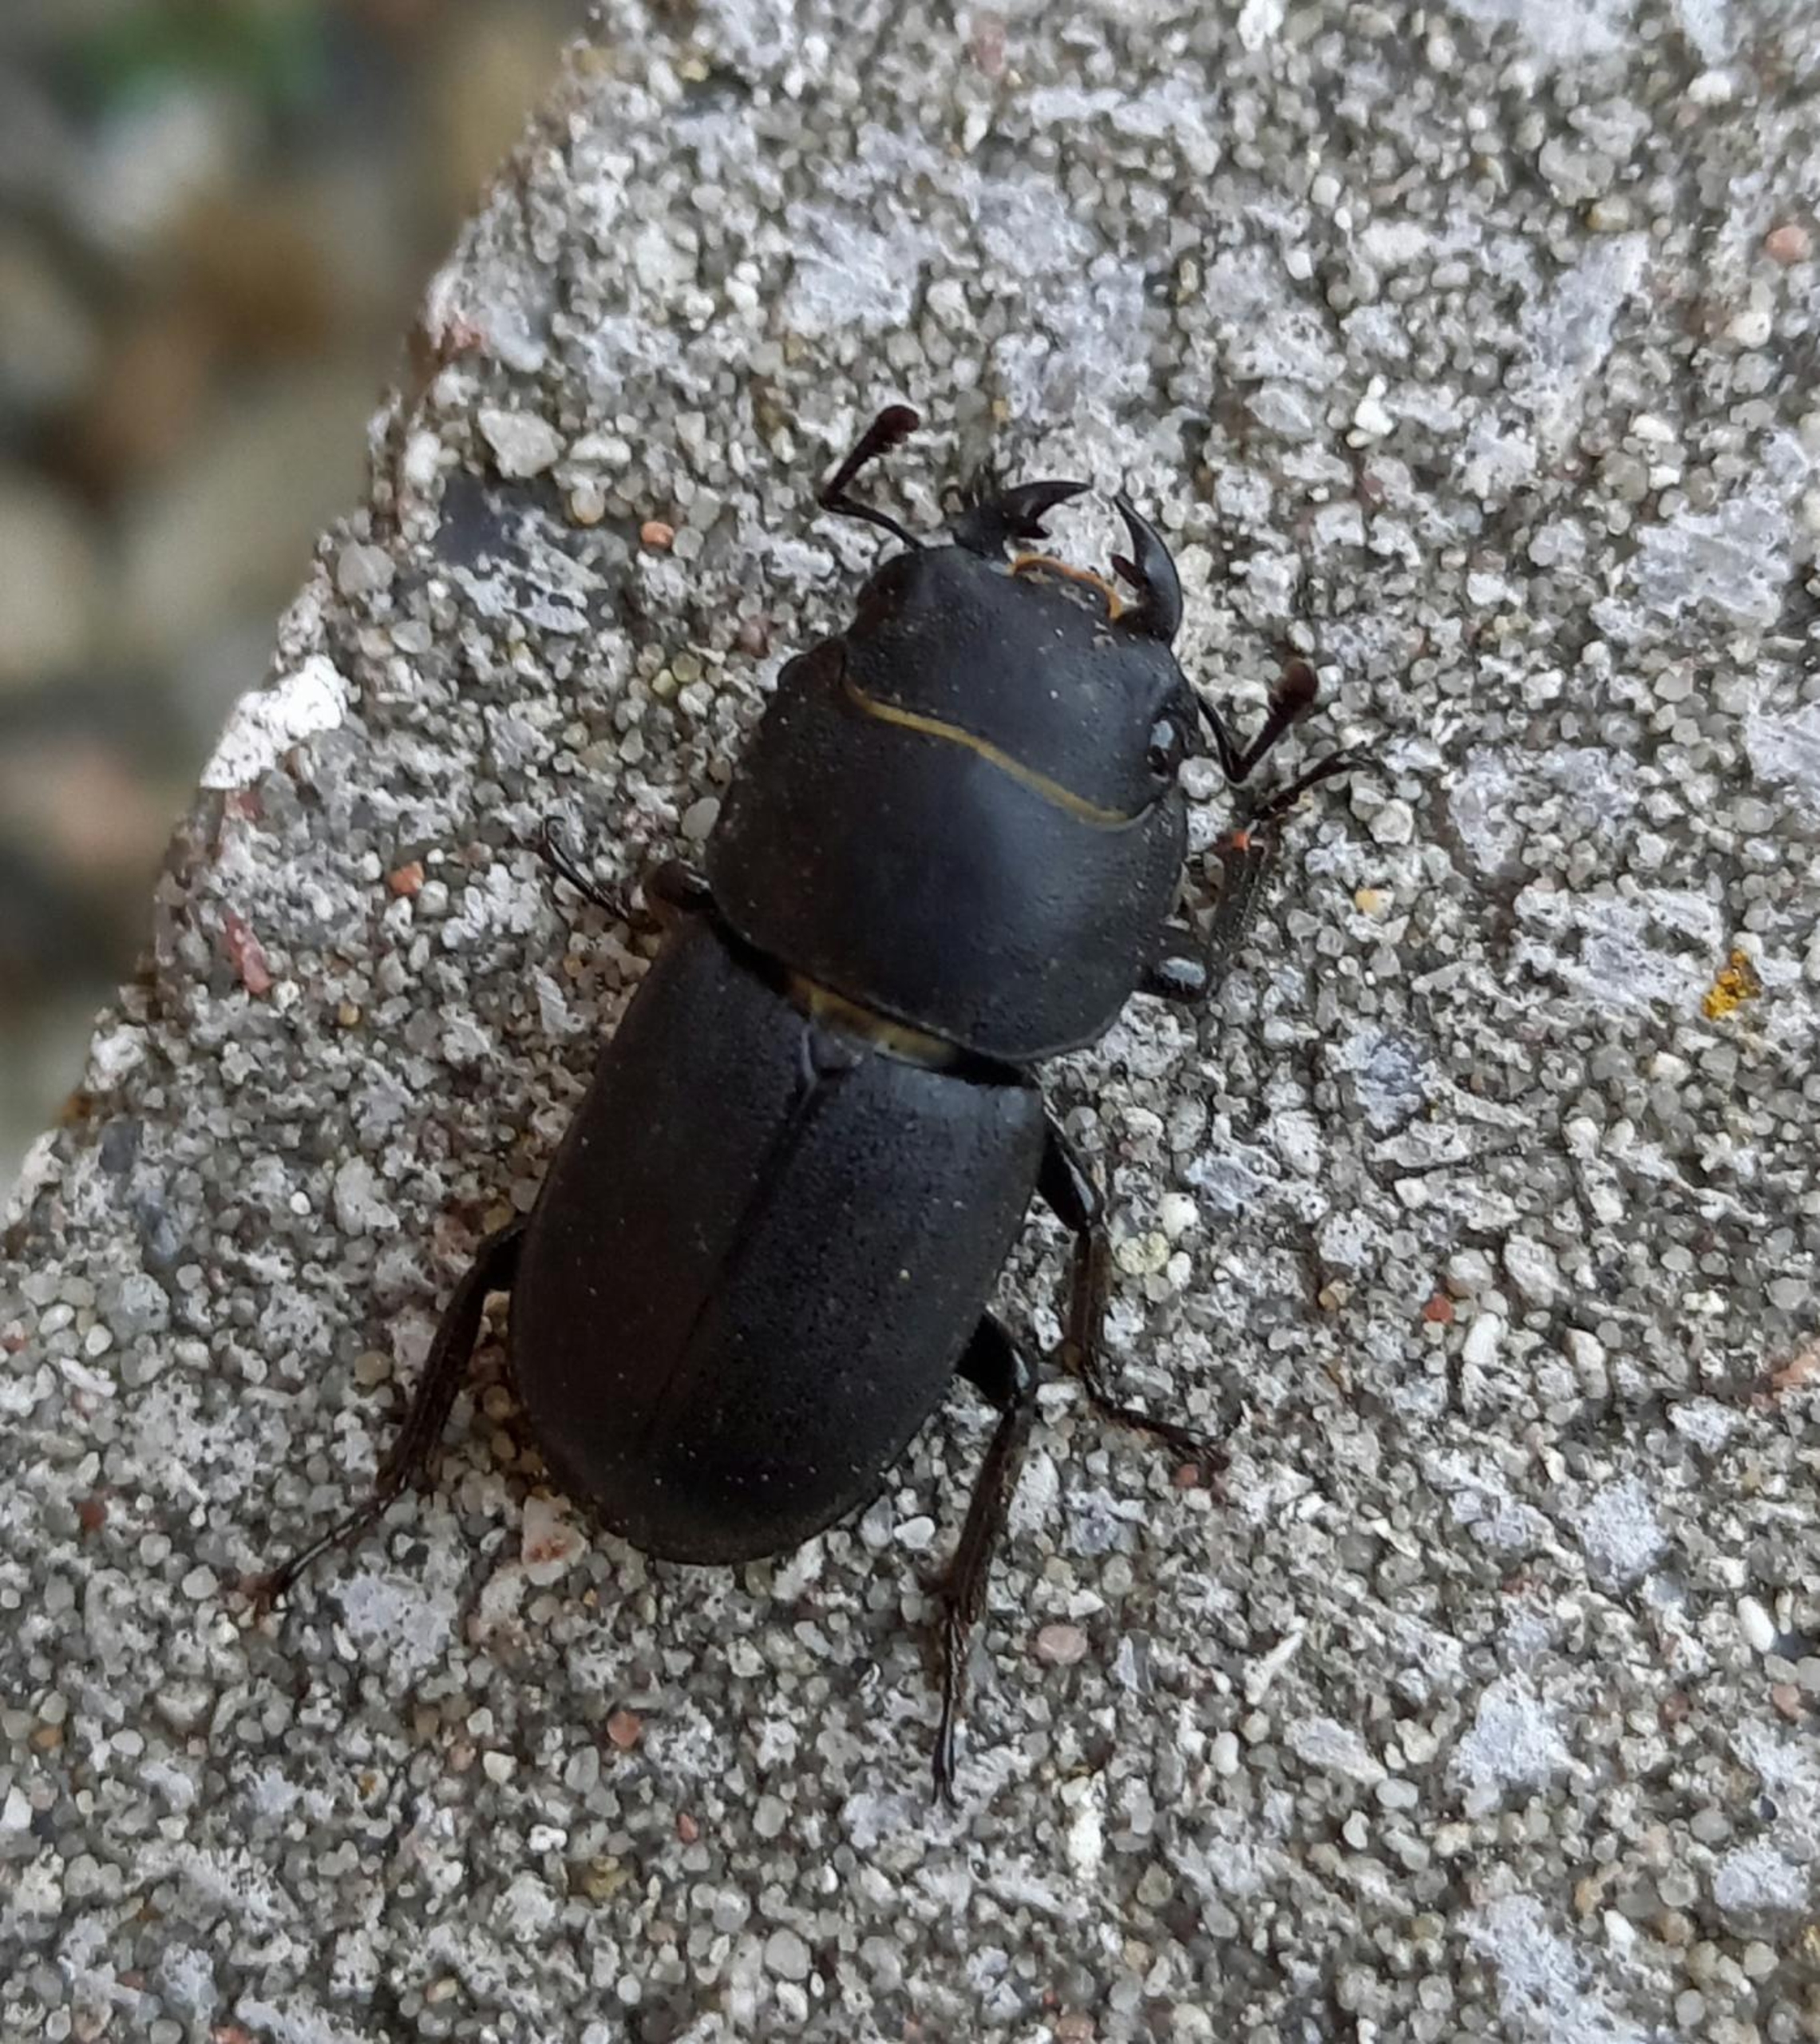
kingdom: Animalia
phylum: Arthropoda
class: Insecta
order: Coleoptera
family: Lucanidae
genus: Dorcus
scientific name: Dorcus parallelipipedus
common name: Bøghjort
